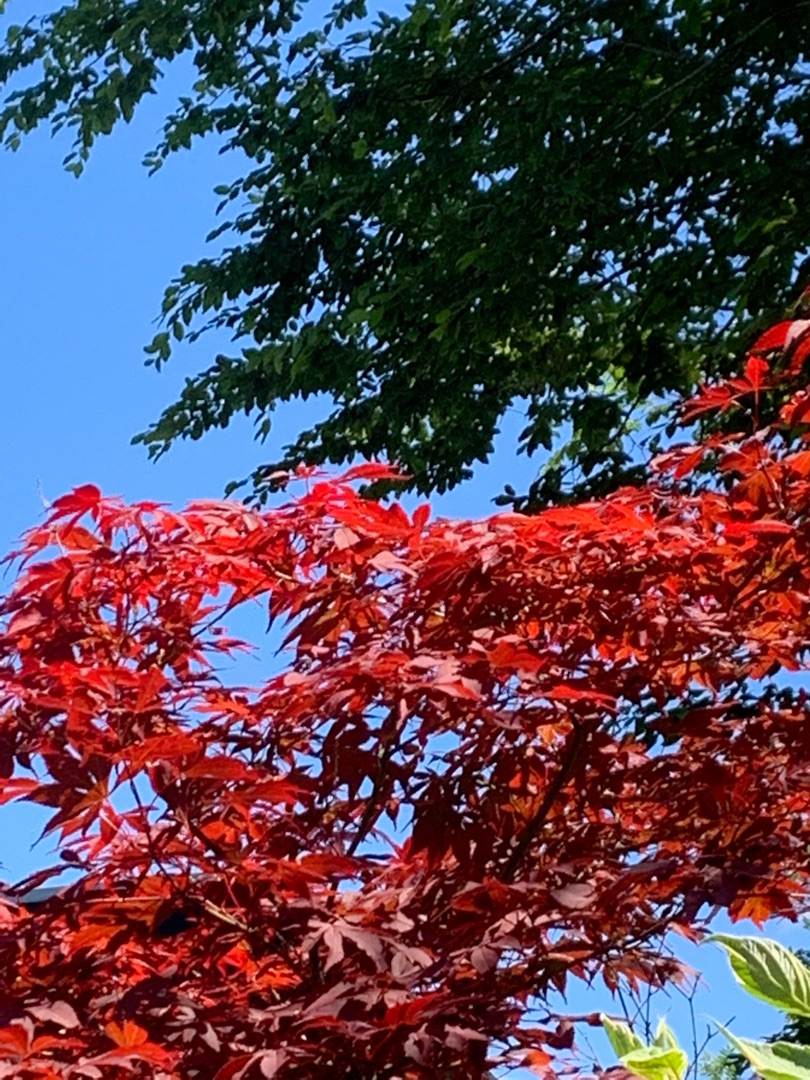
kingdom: Plantae
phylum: Tracheophyta
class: Magnoliopsida
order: Sapindales
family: Sapindaceae
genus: Acer
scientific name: Acer palmatum
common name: Japansk løn
